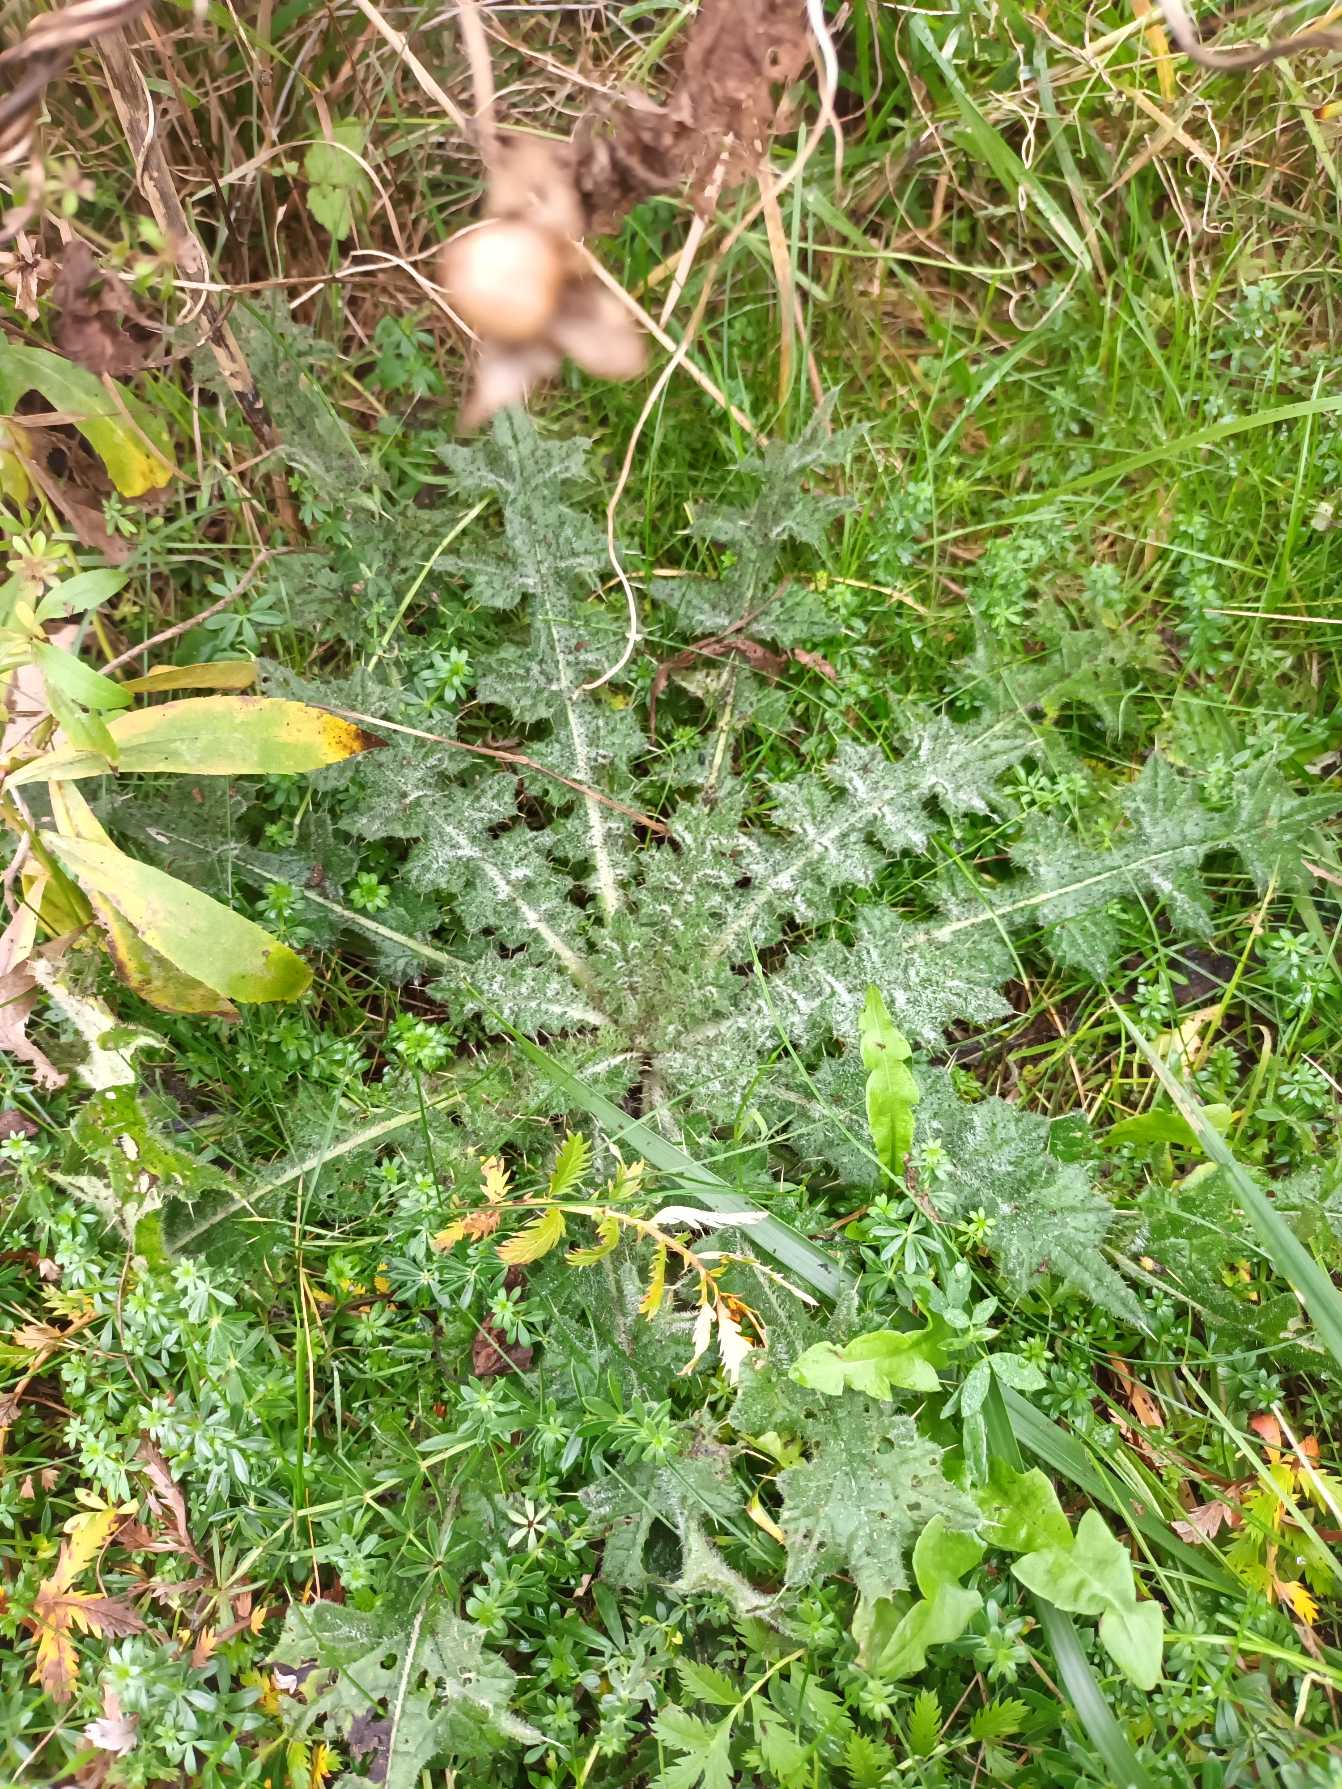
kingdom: Plantae
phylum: Tracheophyta
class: Magnoliopsida
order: Asterales
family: Asteraceae
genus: Cirsium
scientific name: Cirsium vulgare
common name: Horse-tidsel
